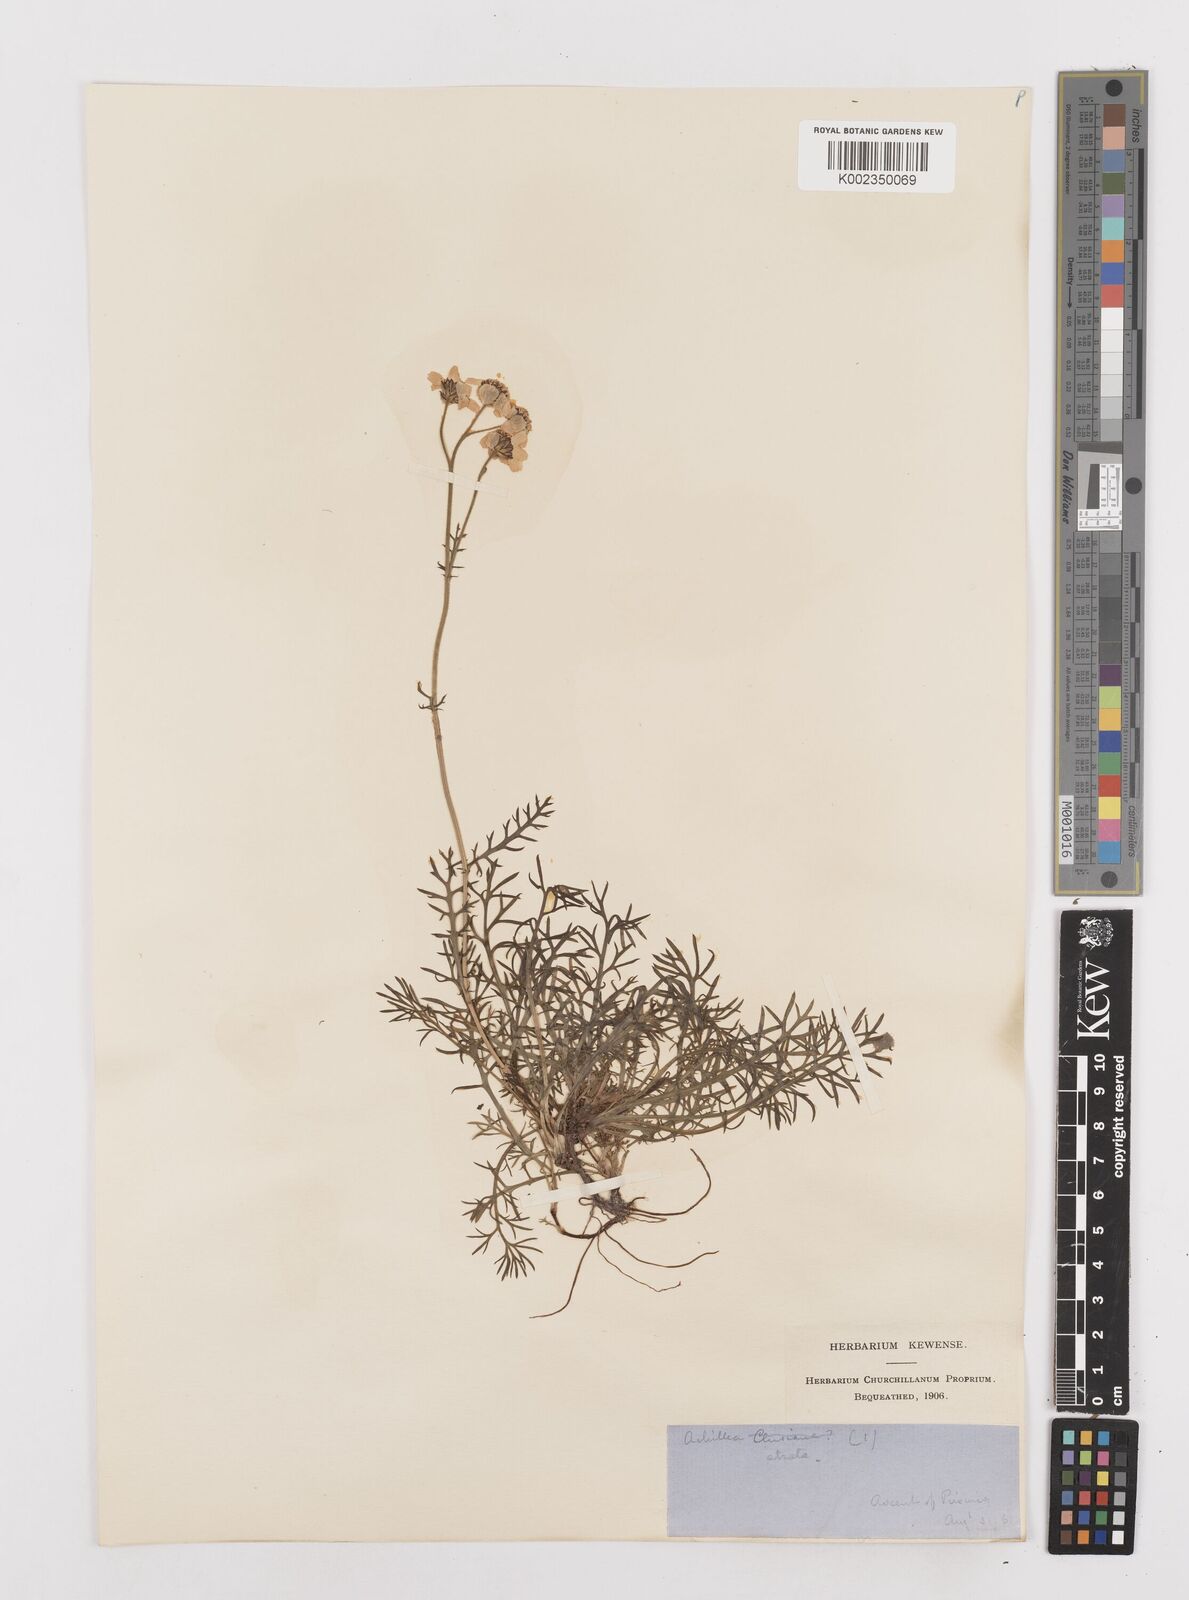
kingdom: Plantae
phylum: Tracheophyta
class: Magnoliopsida
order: Asterales
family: Asteraceae
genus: Achillea
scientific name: Achillea atrata
